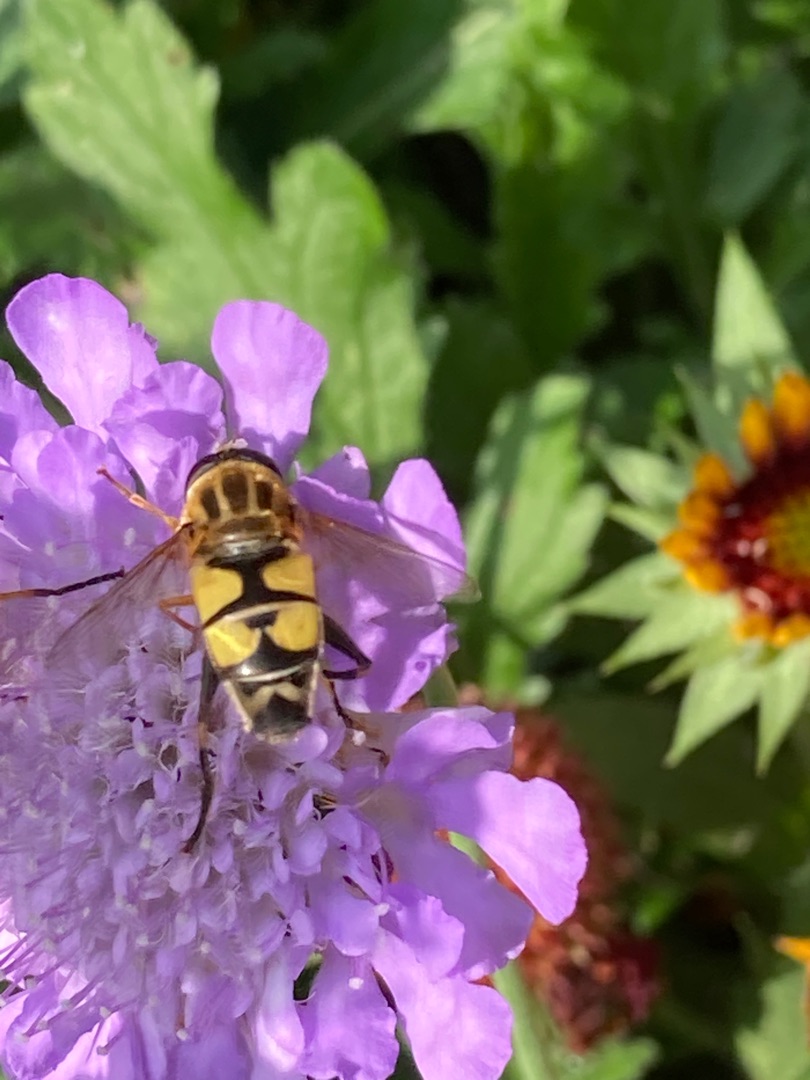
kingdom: Animalia
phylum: Arthropoda
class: Insecta
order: Diptera
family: Syrphidae
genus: Helophilus
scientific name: Helophilus trivittatus
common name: Trebåndet sumpsvirreflue
